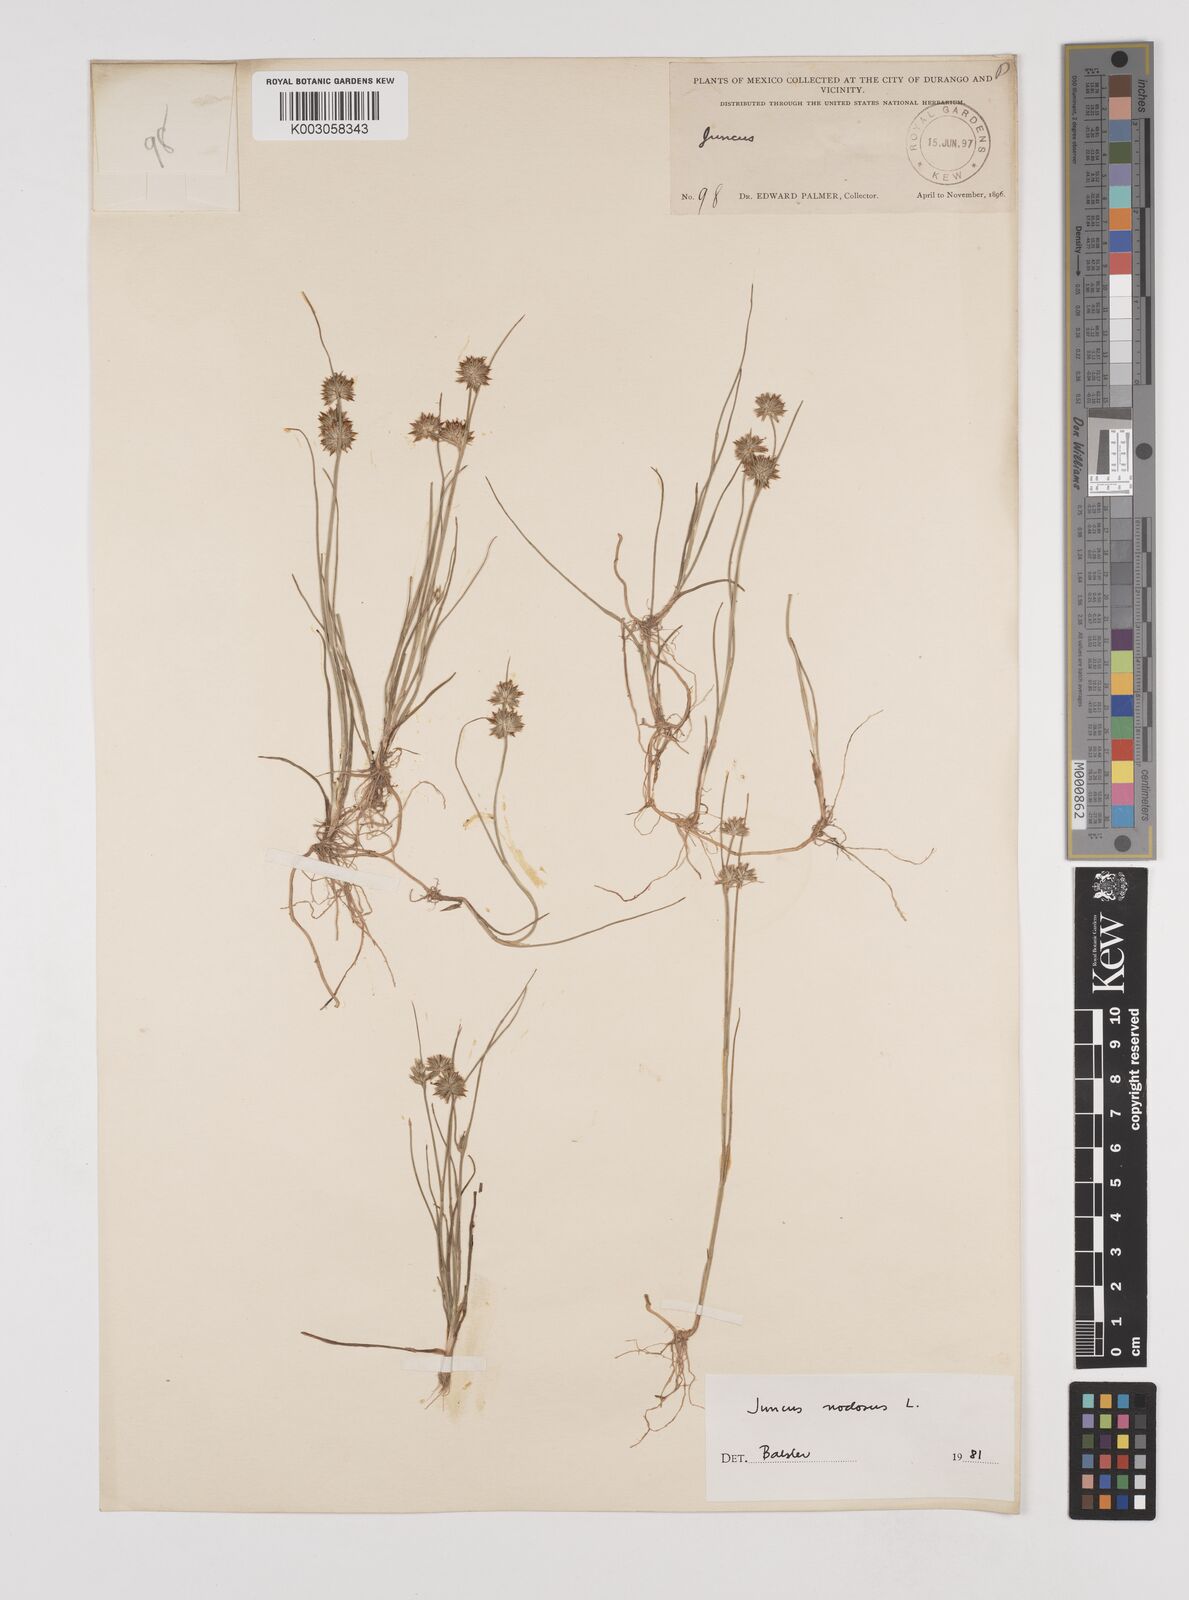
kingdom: Plantae
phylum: Tracheophyta
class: Liliopsida
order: Poales
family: Juncaceae
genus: Juncus
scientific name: Juncus nodosus
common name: Knotted rush
